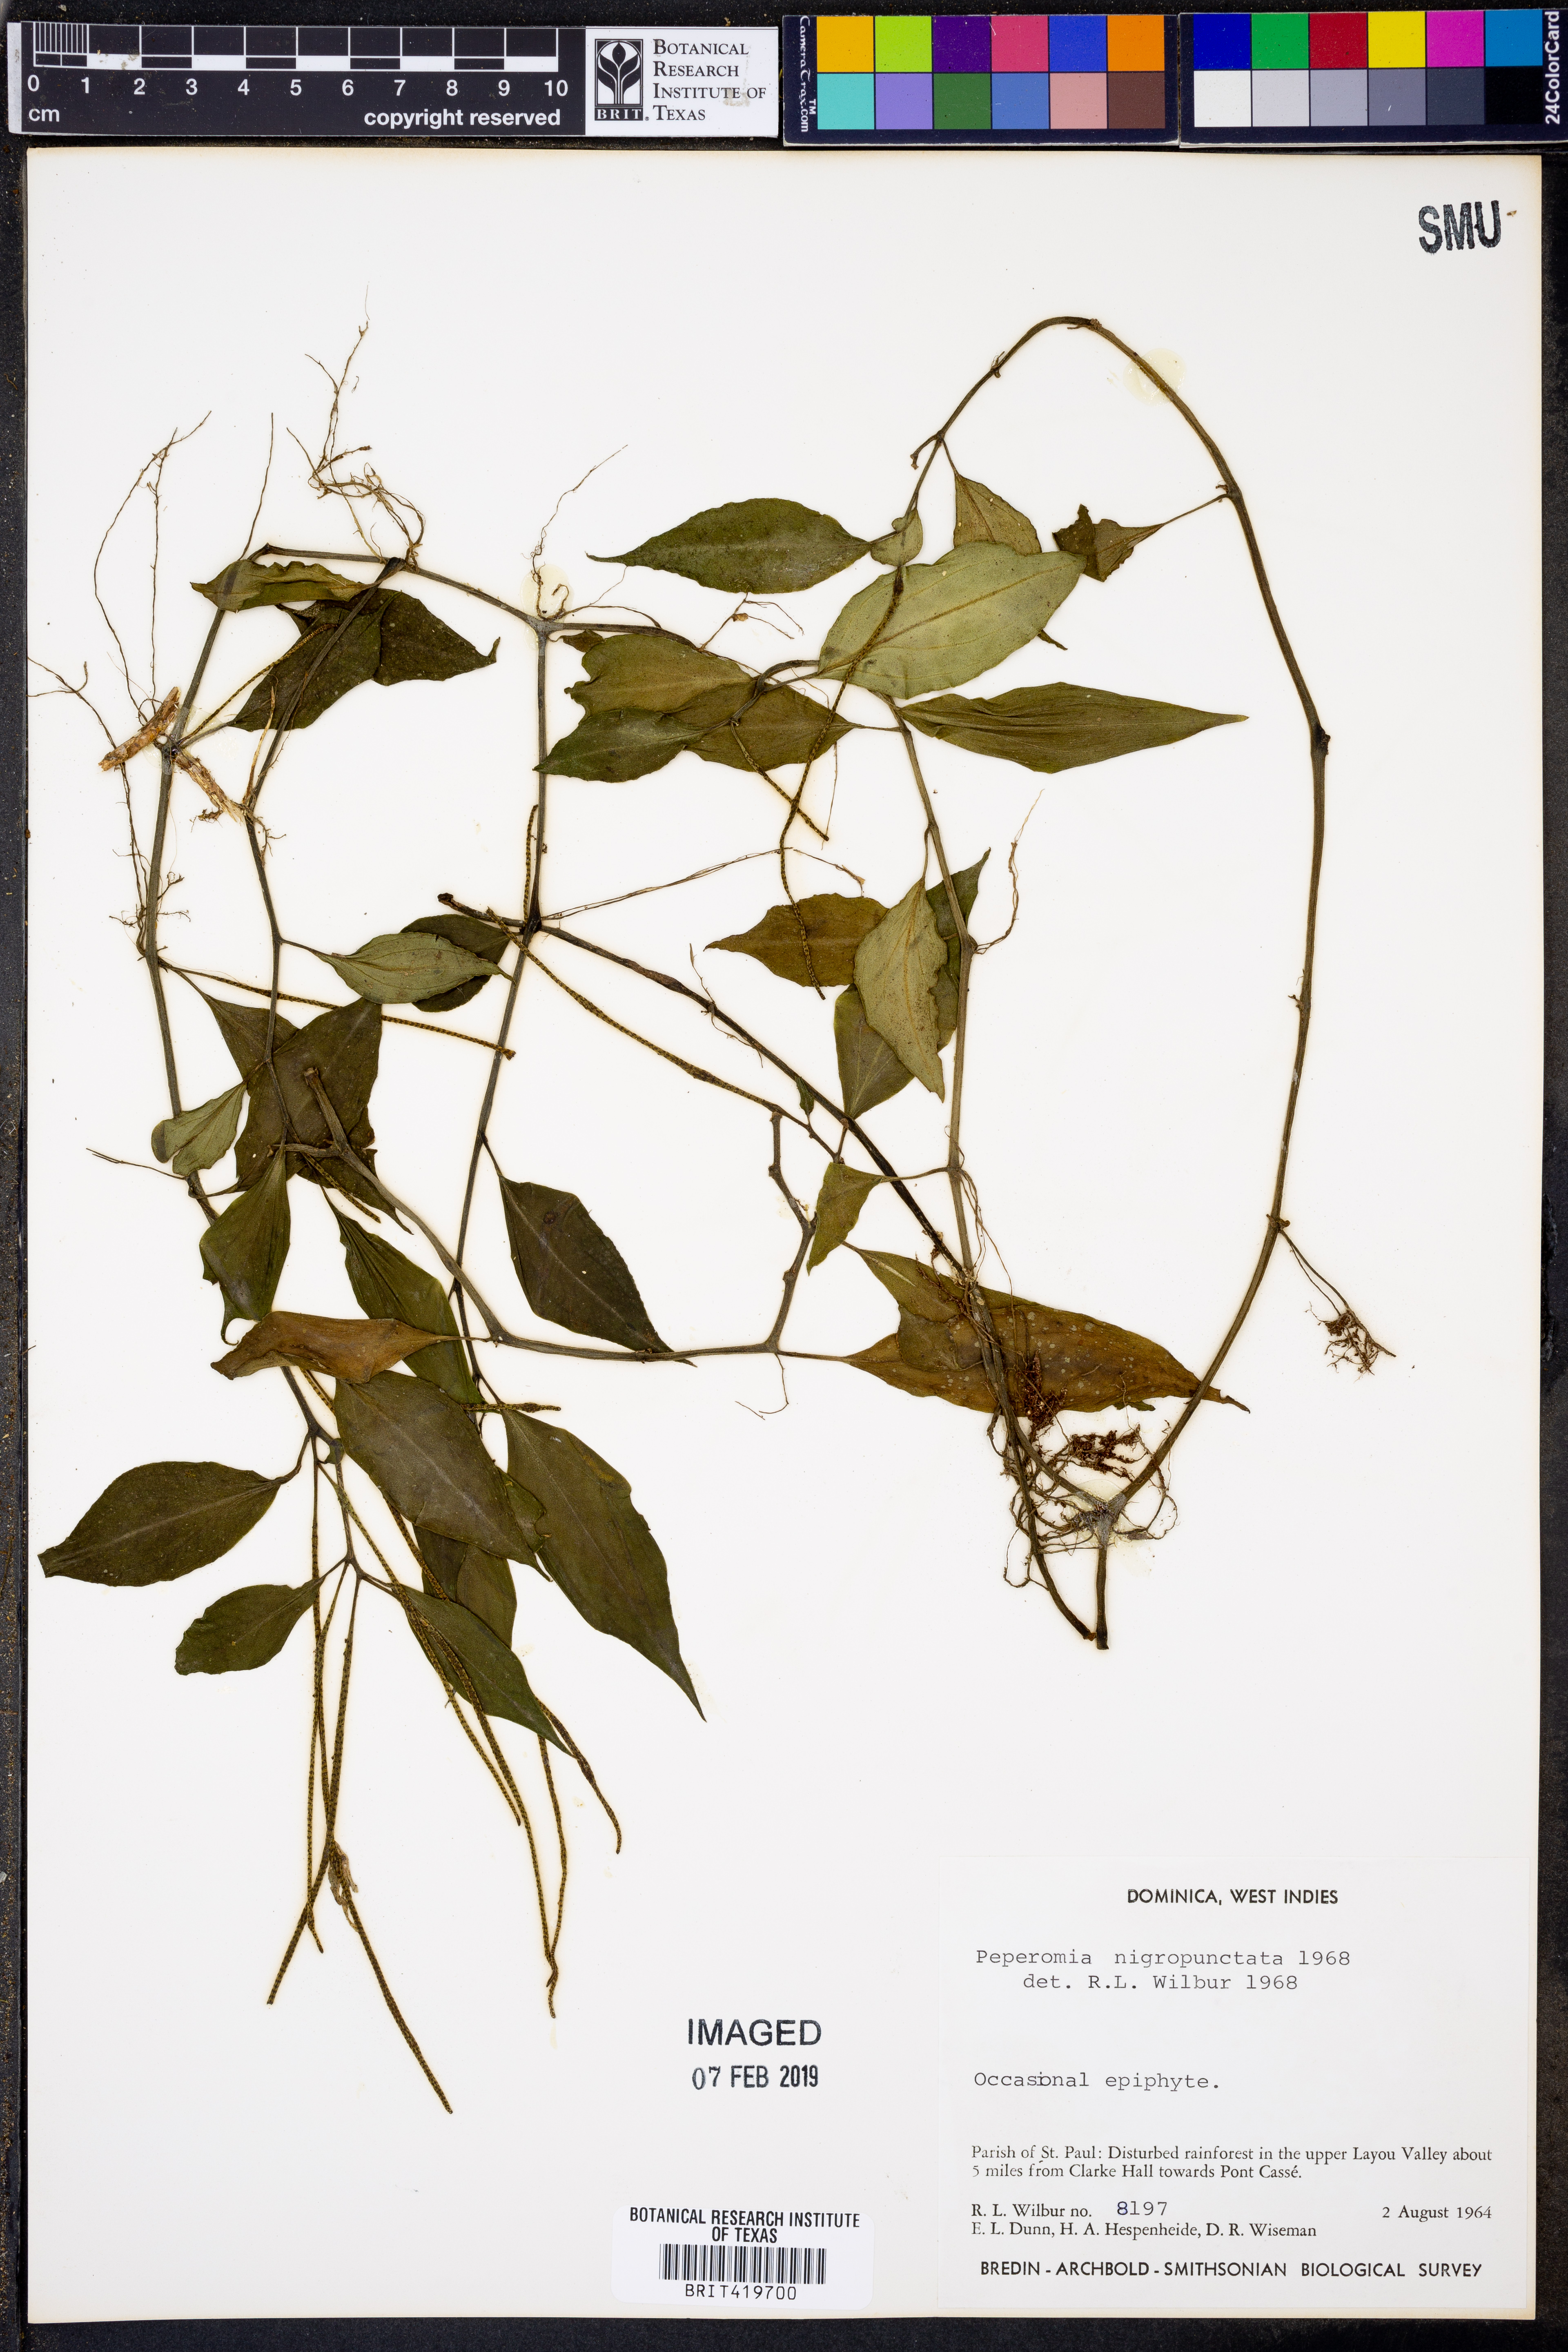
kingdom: Plantae
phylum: Tracheophyta
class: Magnoliopsida
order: Piperales
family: Piperaceae
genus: Peperomia
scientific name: Peperomia glabella
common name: Cypress peperomia
